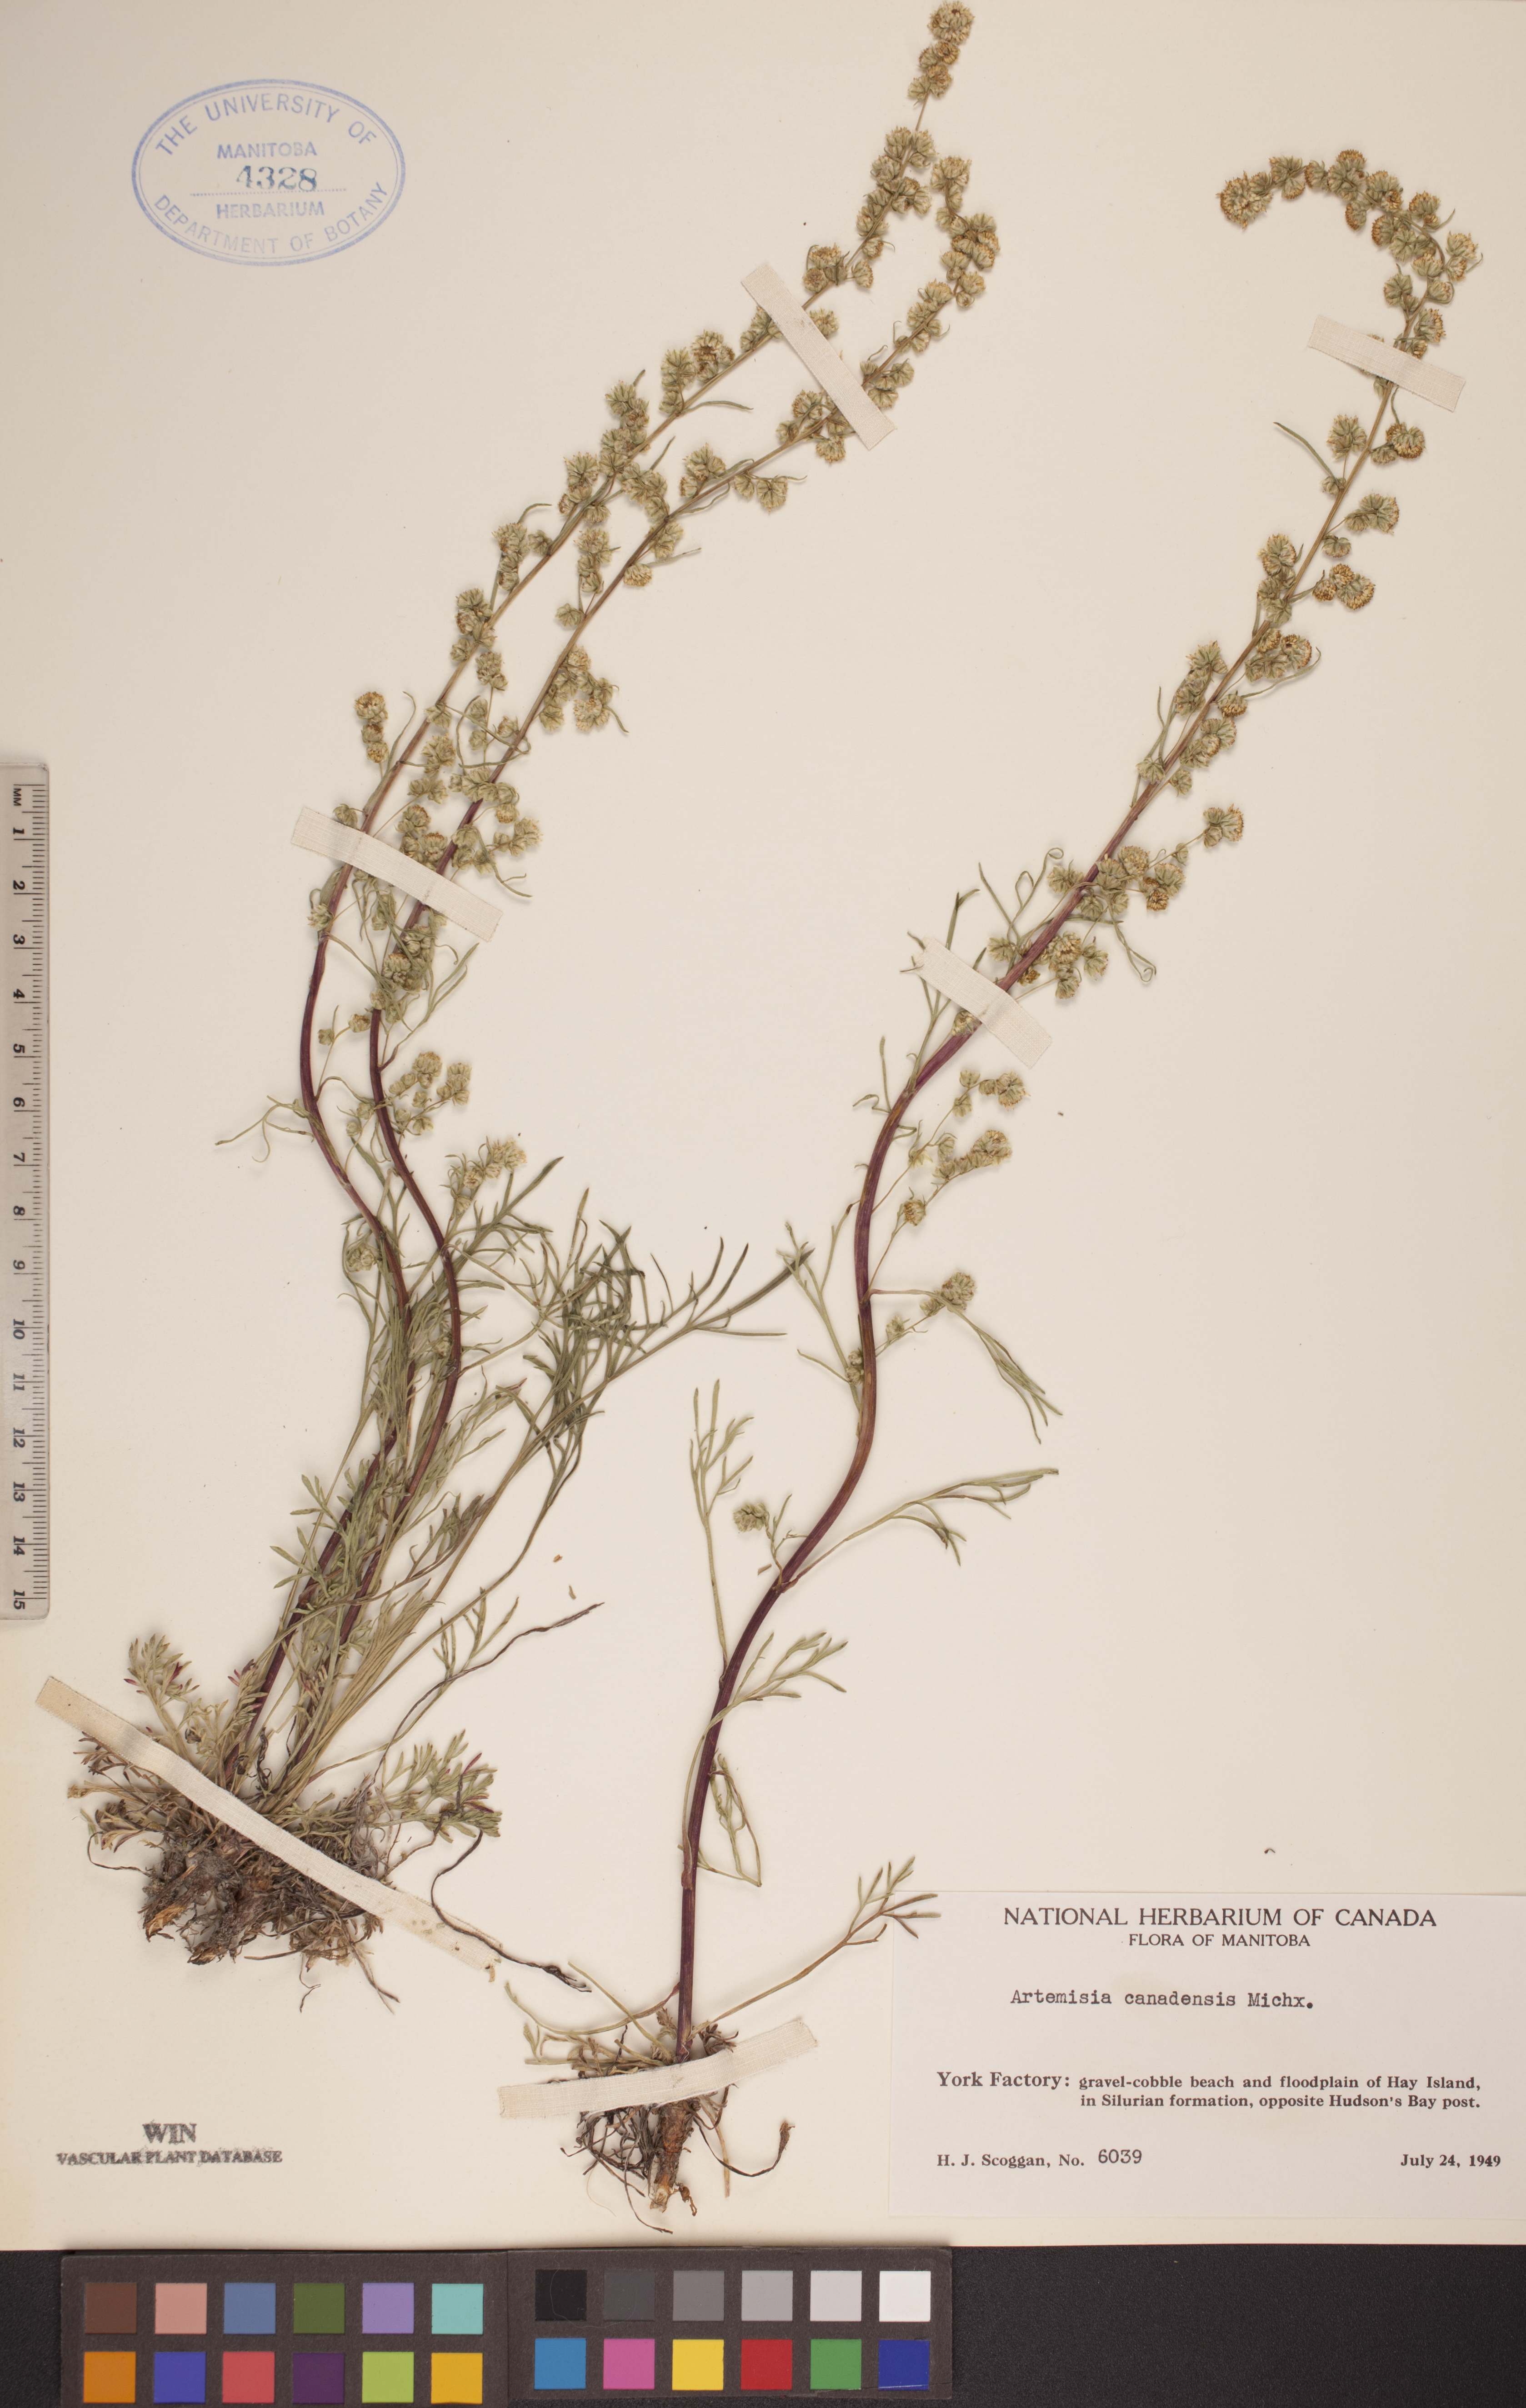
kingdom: Plantae
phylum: Tracheophyta
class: Magnoliopsida
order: Asterales
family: Asteraceae
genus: Artemisia
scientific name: Artemisia campestris
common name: Field wormwood
